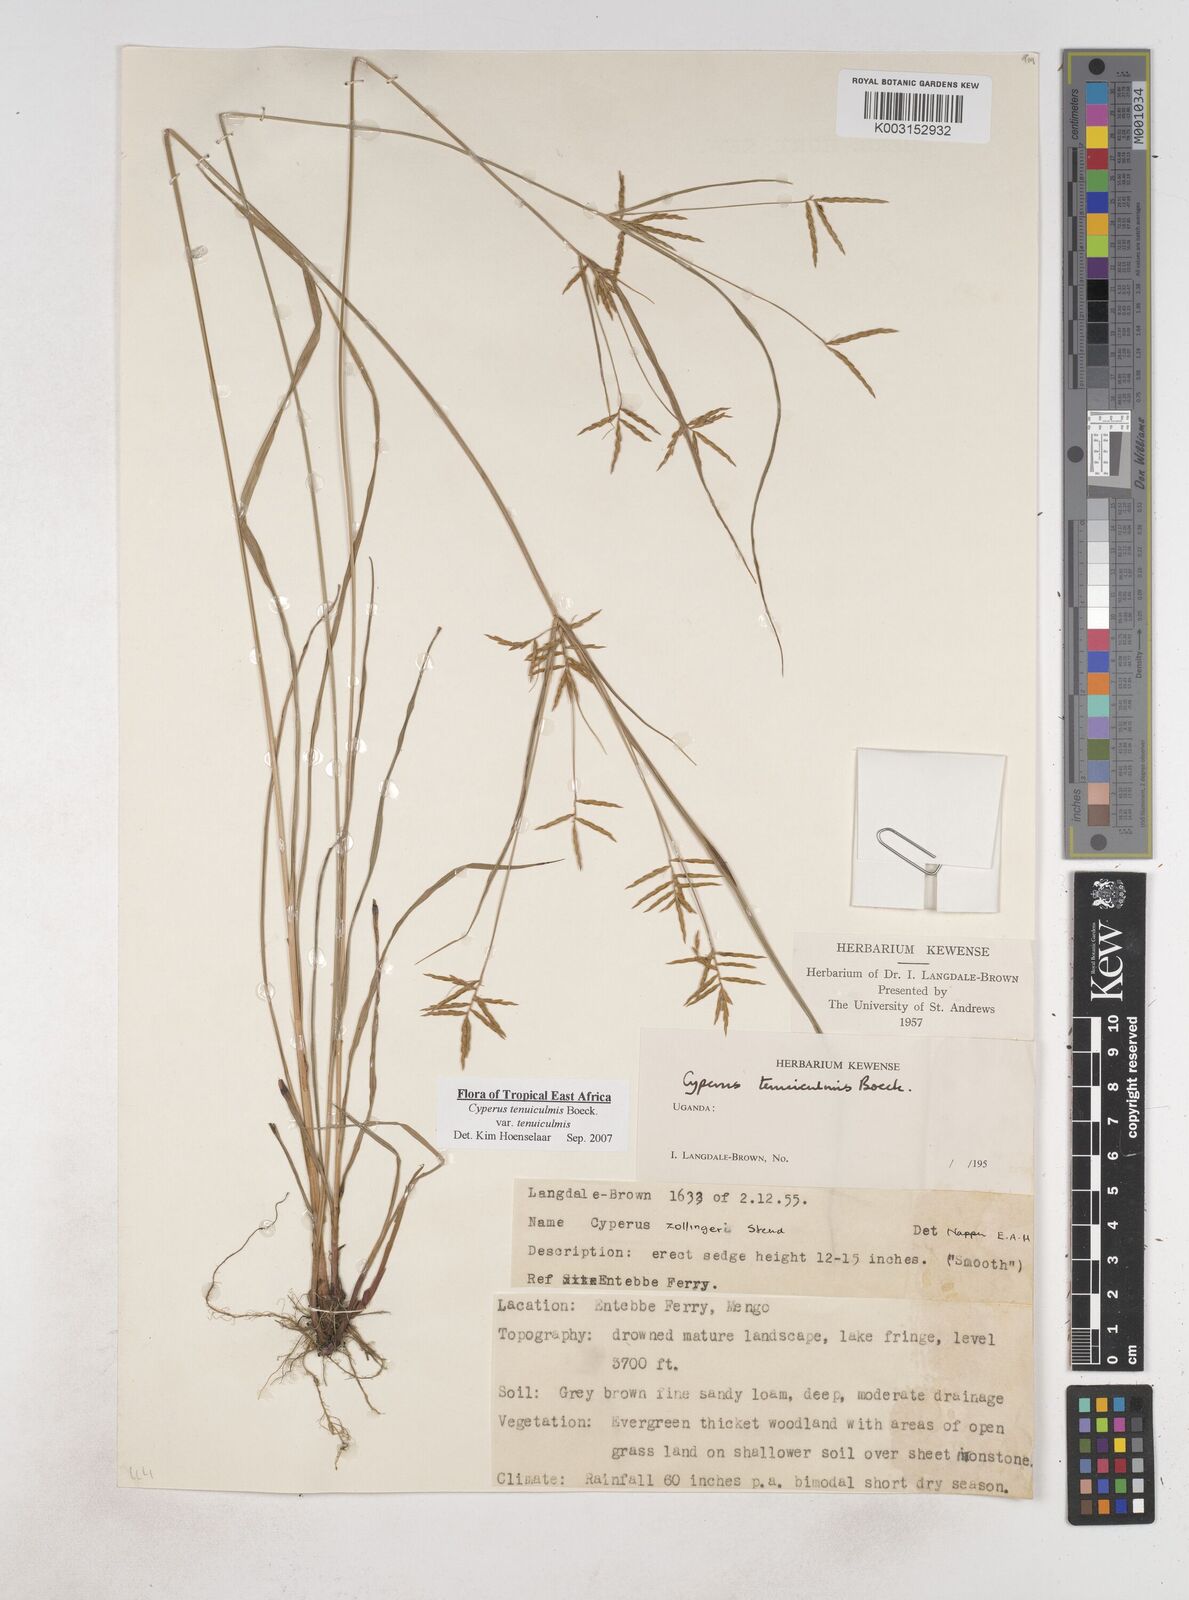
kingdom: Plantae
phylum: Tracheophyta
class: Liliopsida
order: Poales
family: Cyperaceae
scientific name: Cyperaceae
